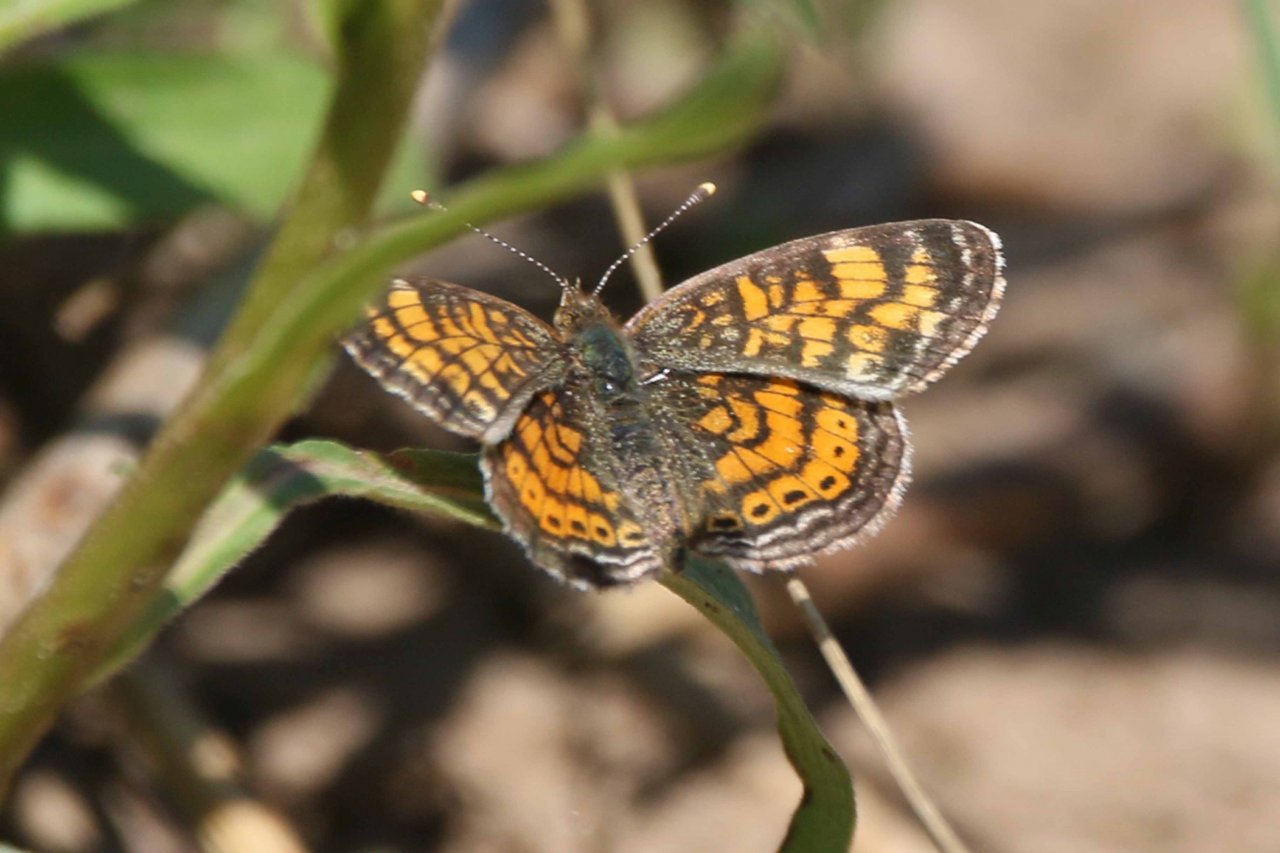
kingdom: Animalia
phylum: Arthropoda
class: Insecta
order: Lepidoptera
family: Nymphalidae
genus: Phyciodes
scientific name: Phyciodes tharos
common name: Pearl Crescent
